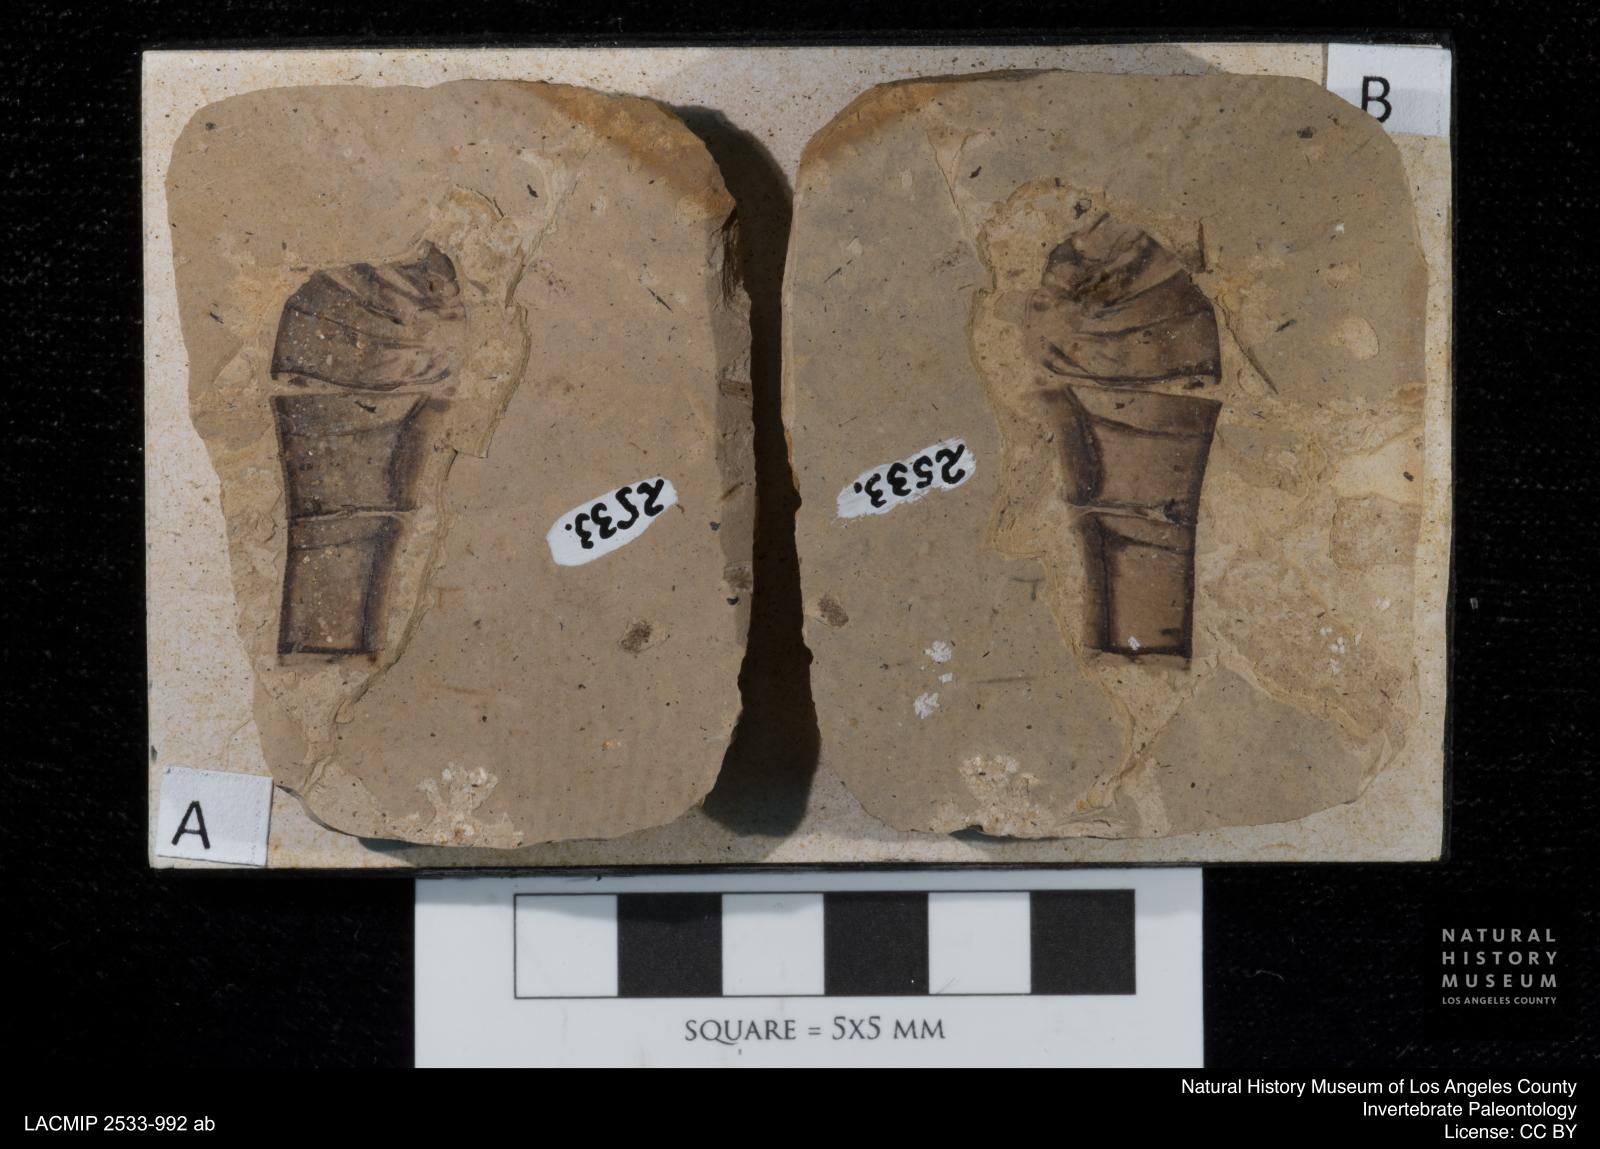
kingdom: Animalia
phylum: Arthropoda
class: Insecta
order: Odonata
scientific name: Odonata
